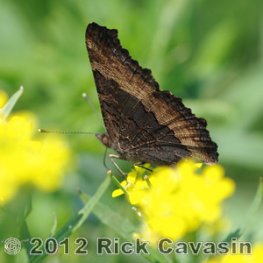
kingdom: Animalia
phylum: Arthropoda
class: Insecta
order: Lepidoptera
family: Nymphalidae
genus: Aglais
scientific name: Aglais milberti
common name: Milbert's Tortoiseshell
